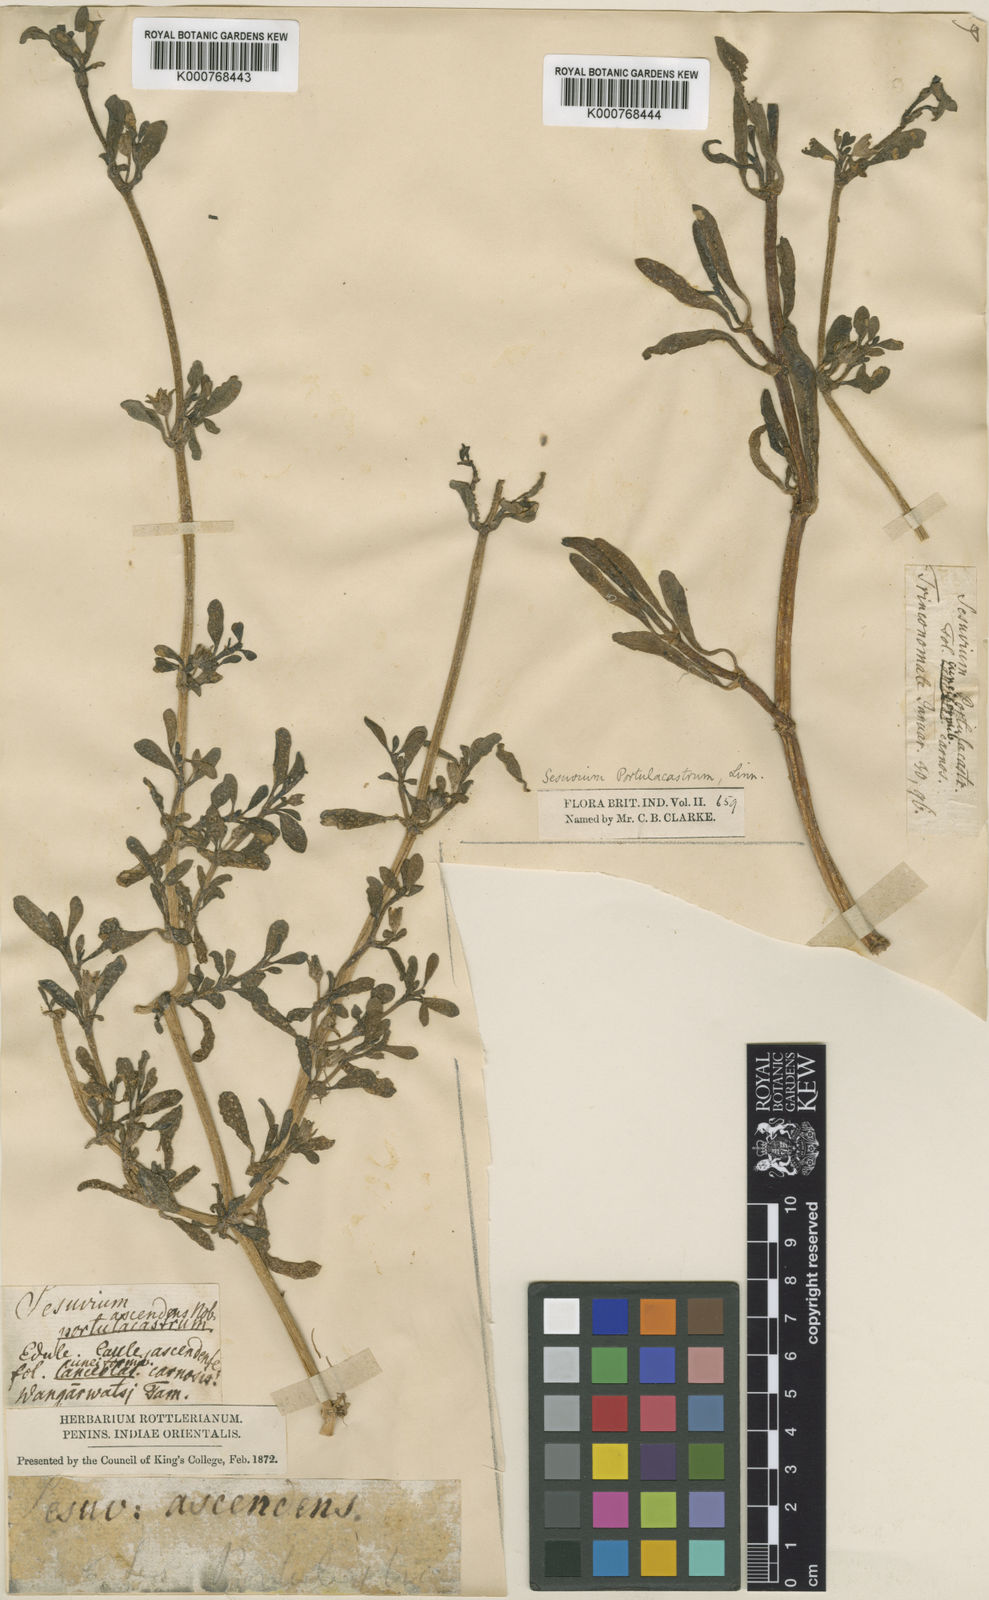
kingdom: Plantae
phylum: Tracheophyta
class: Magnoliopsida
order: Caryophyllales
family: Aizoaceae
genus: Sesuvium
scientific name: Sesuvium portulacastrum
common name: Sea-purslane
